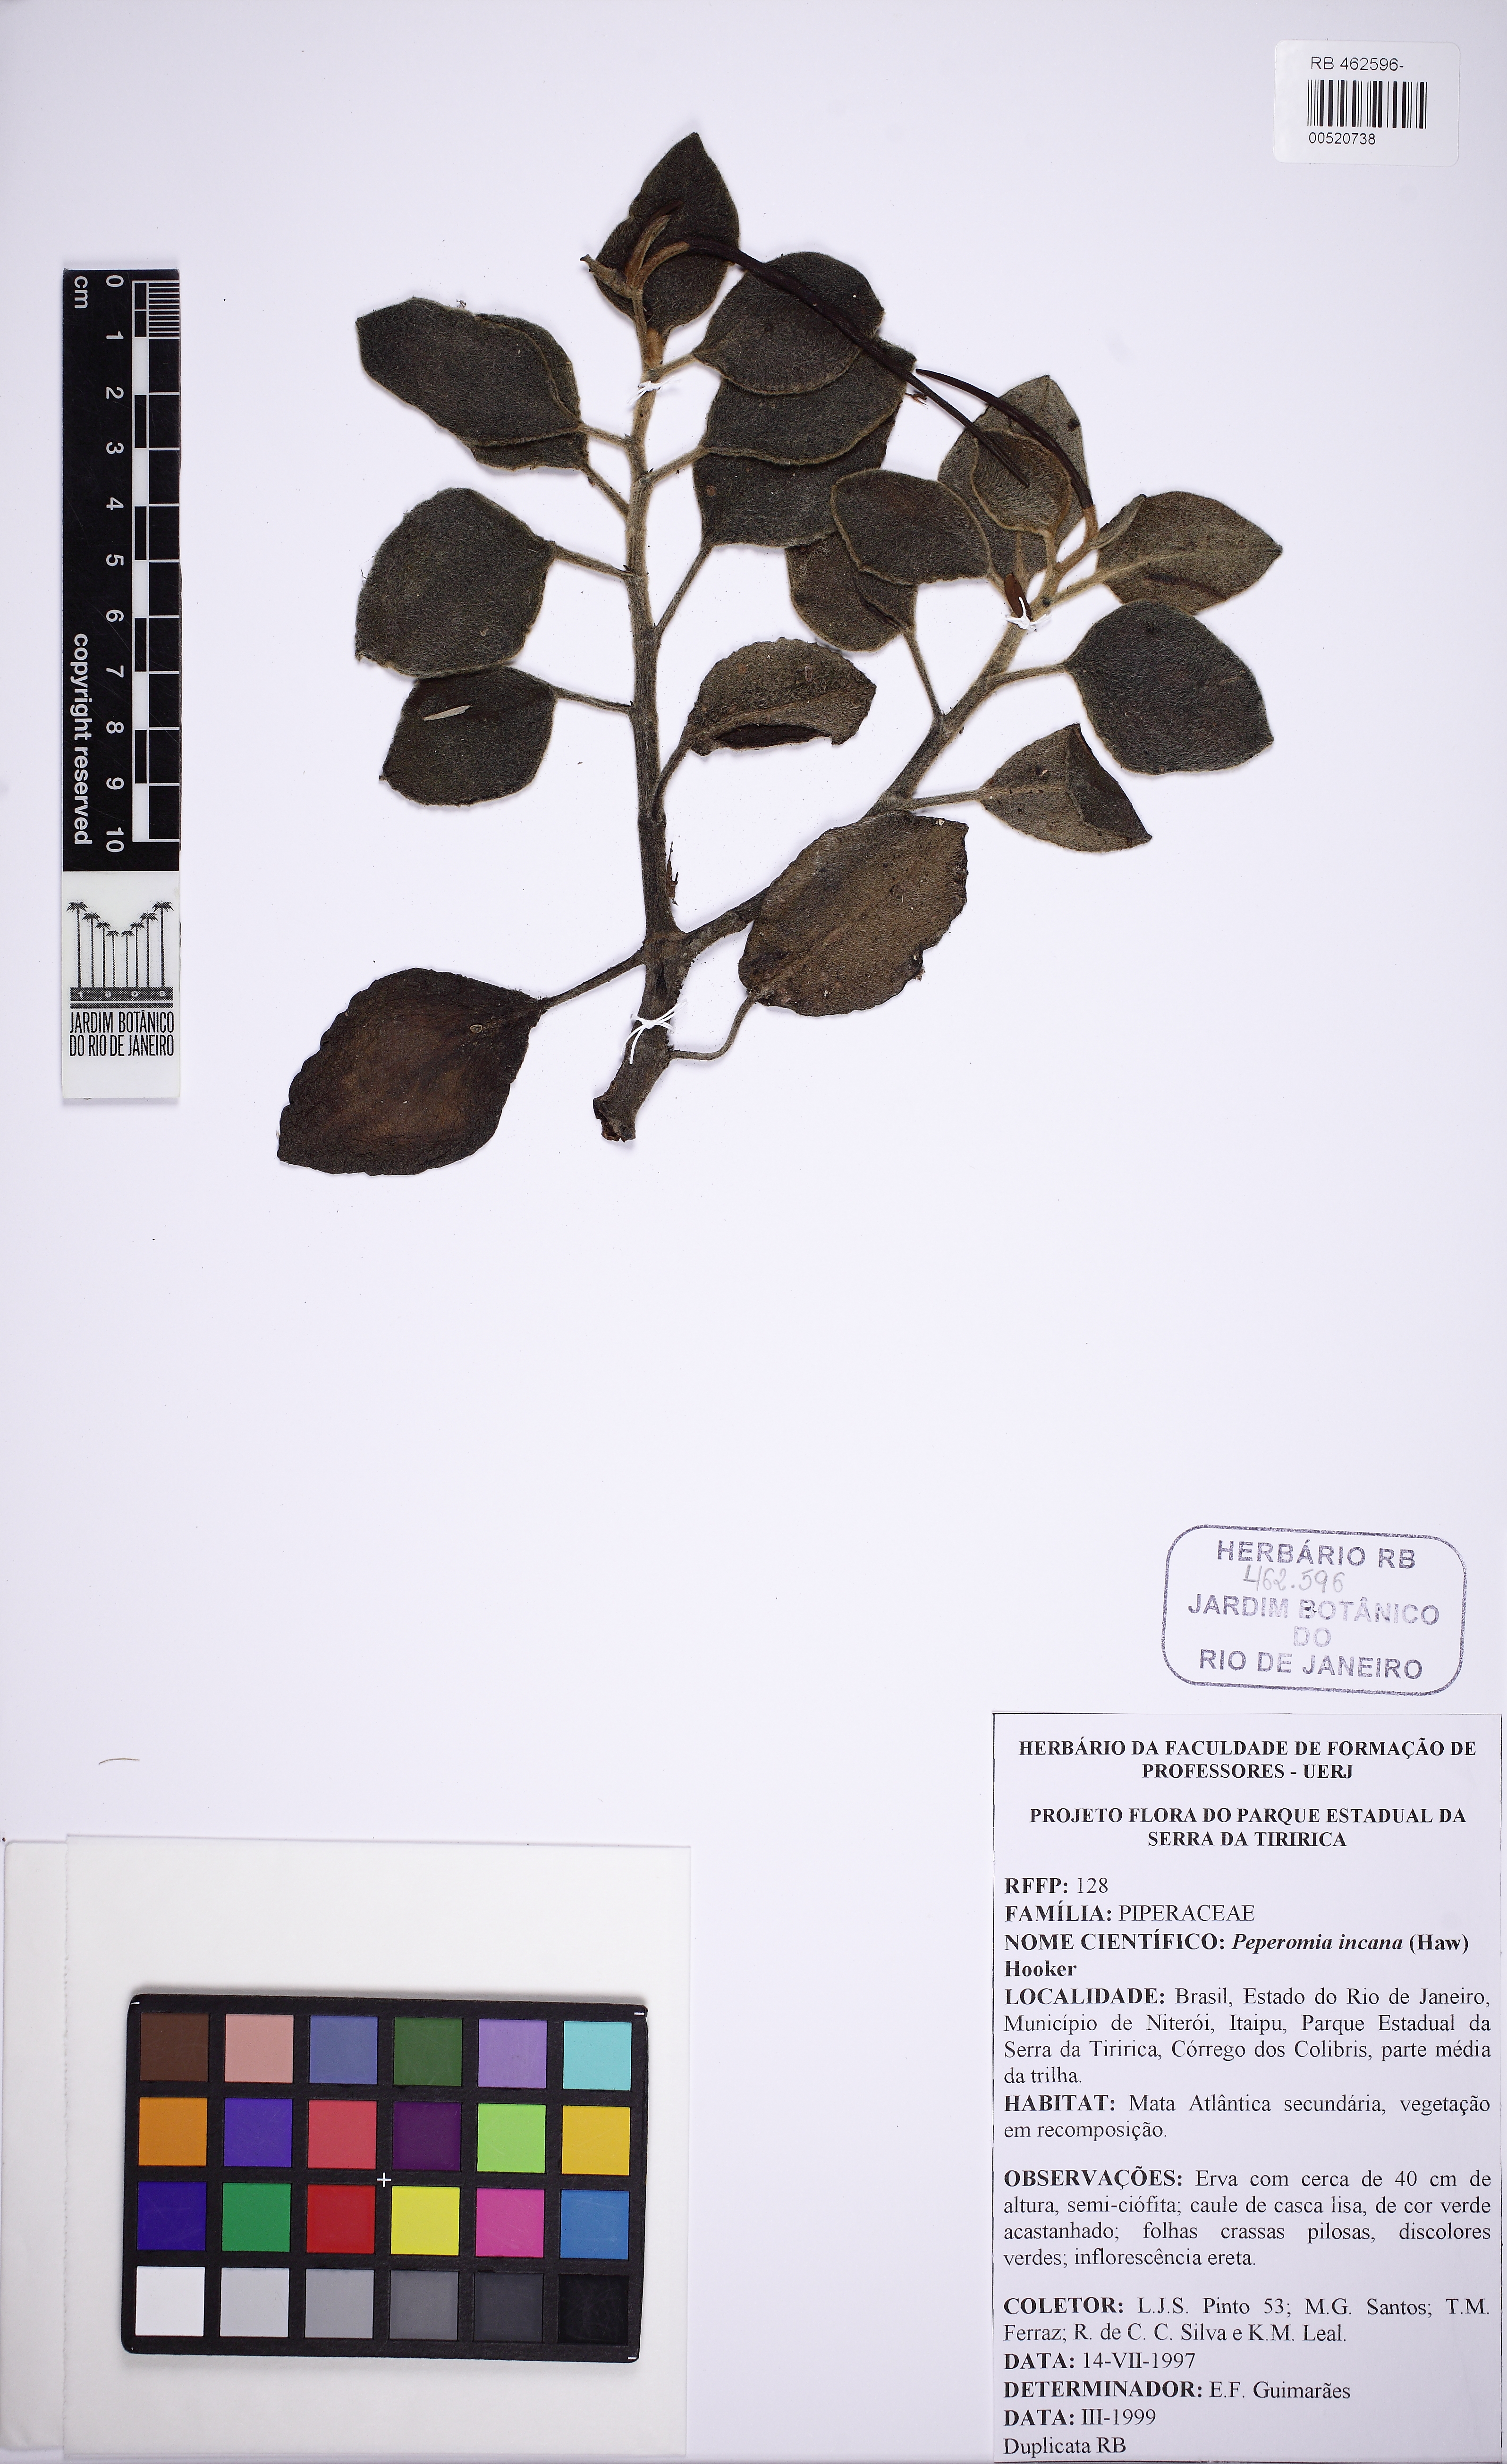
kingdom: Plantae
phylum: Tracheophyta
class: Magnoliopsida
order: Piperales
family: Piperaceae
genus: Peperomia
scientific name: Peperomia incana
